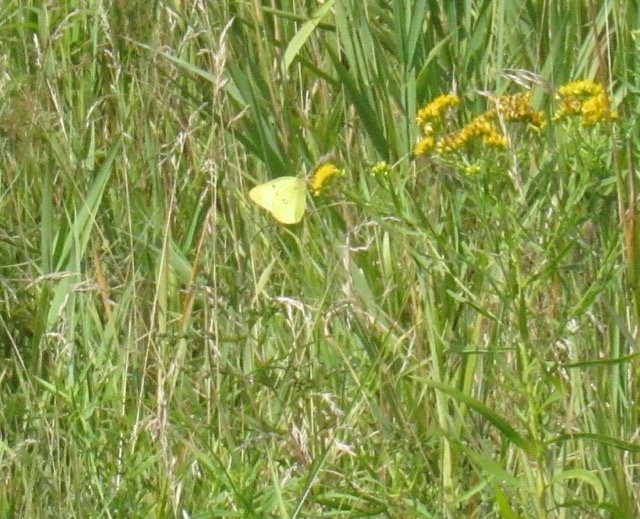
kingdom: Animalia
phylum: Arthropoda
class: Insecta
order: Lepidoptera
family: Pieridae
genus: Colias
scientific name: Colias philodice
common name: Clouded Sulphur
